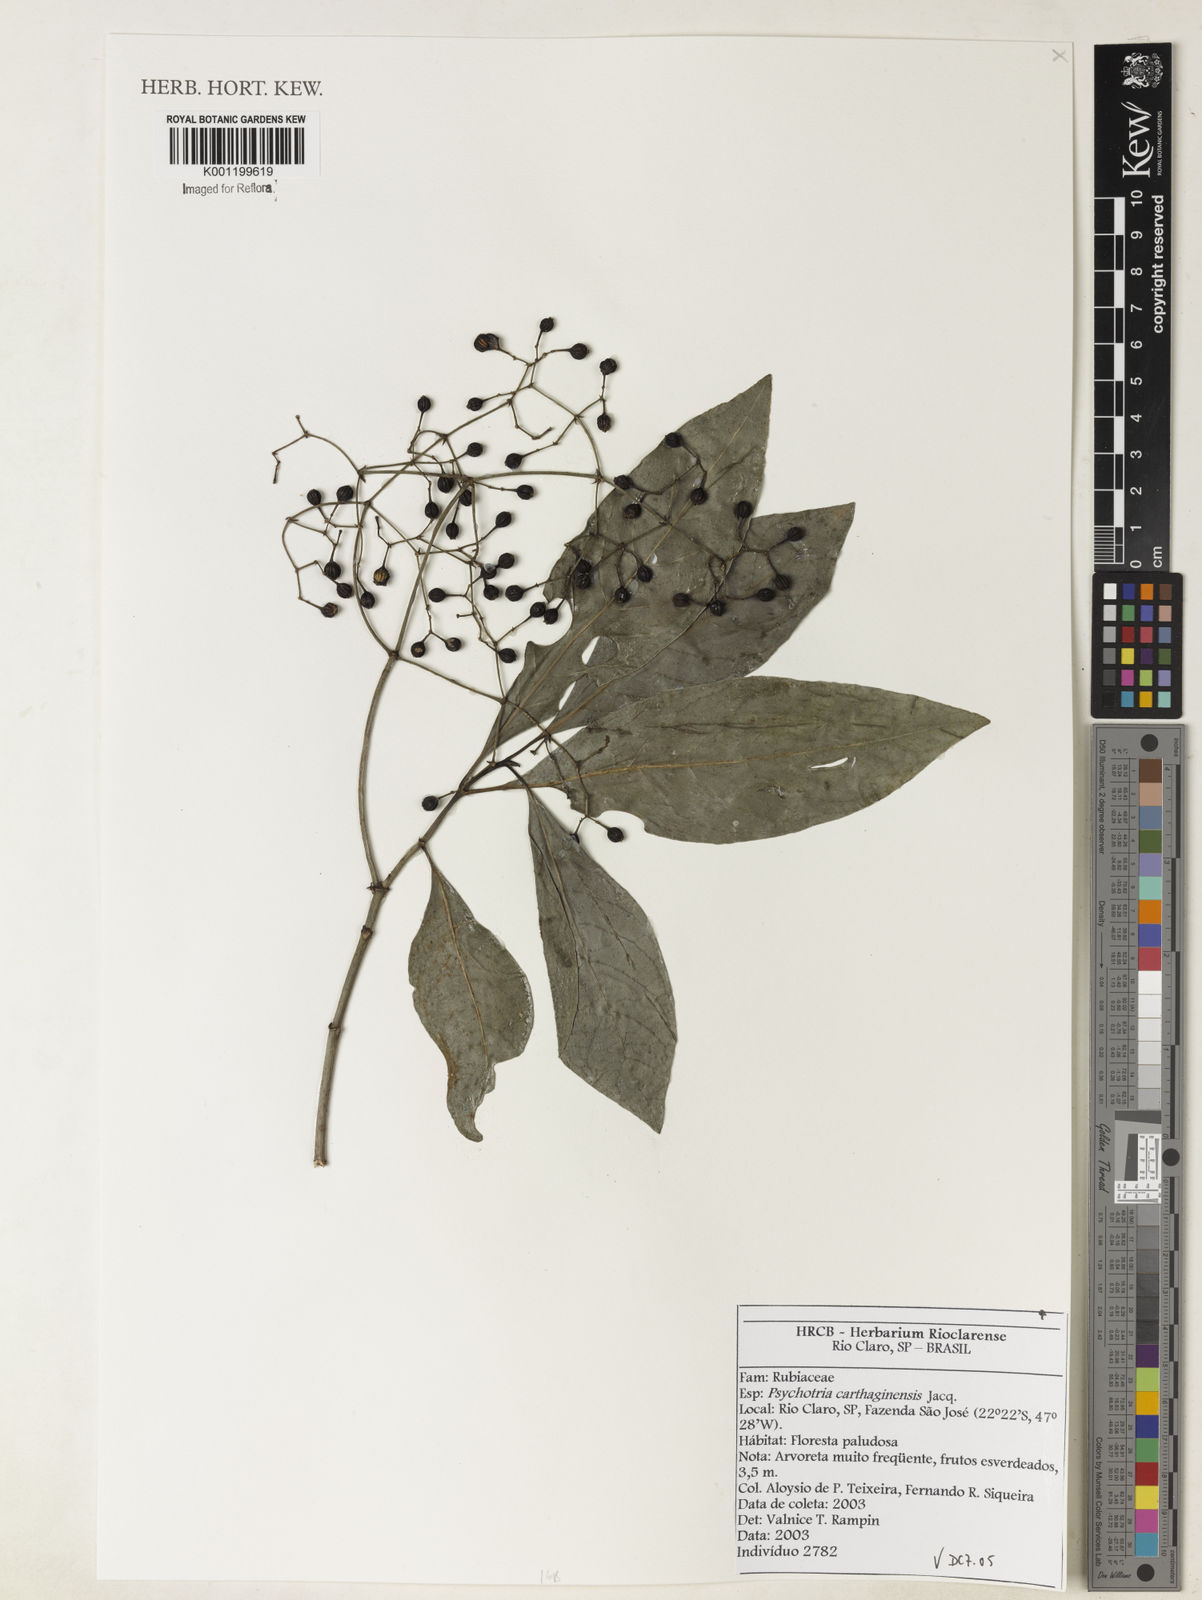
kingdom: Plantae
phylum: Tracheophyta
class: Magnoliopsida
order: Gentianales
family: Rubiaceae
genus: Psychotria
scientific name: Psychotria carthagenensis
